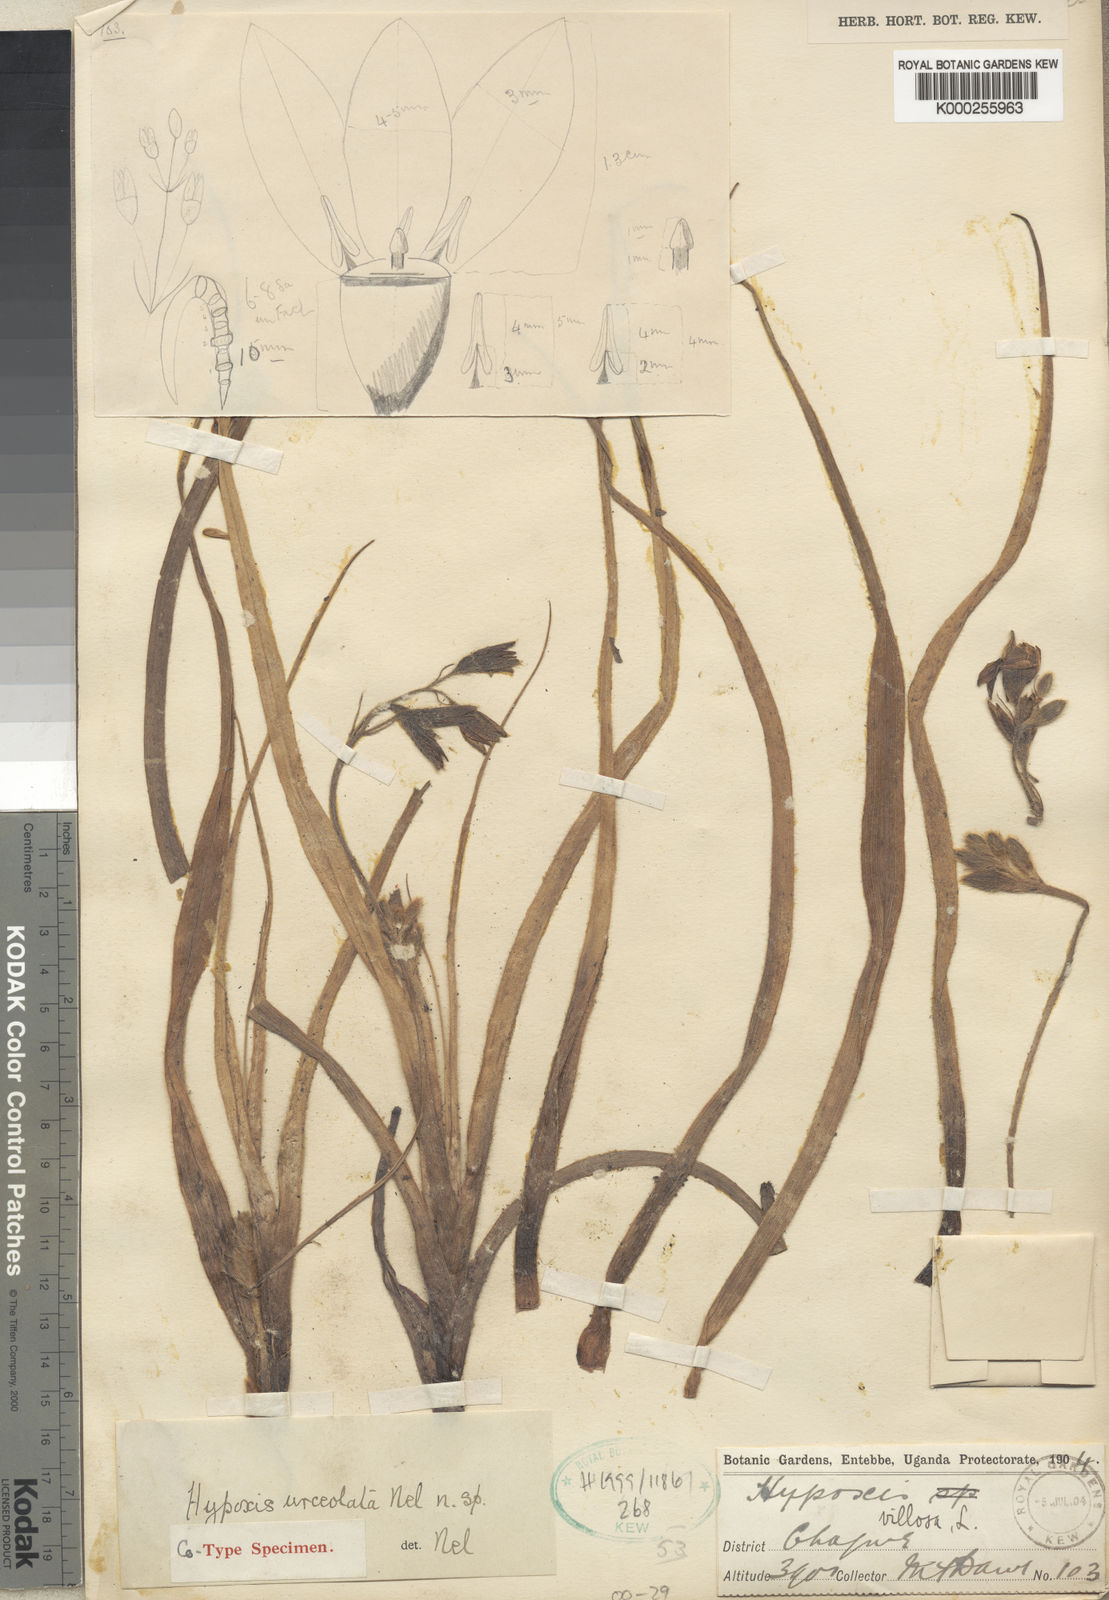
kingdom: Plantae
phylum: Tracheophyta
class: Liliopsida
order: Asparagales
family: Hypoxidaceae
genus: Hypoxis
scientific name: Hypoxis urceolata
